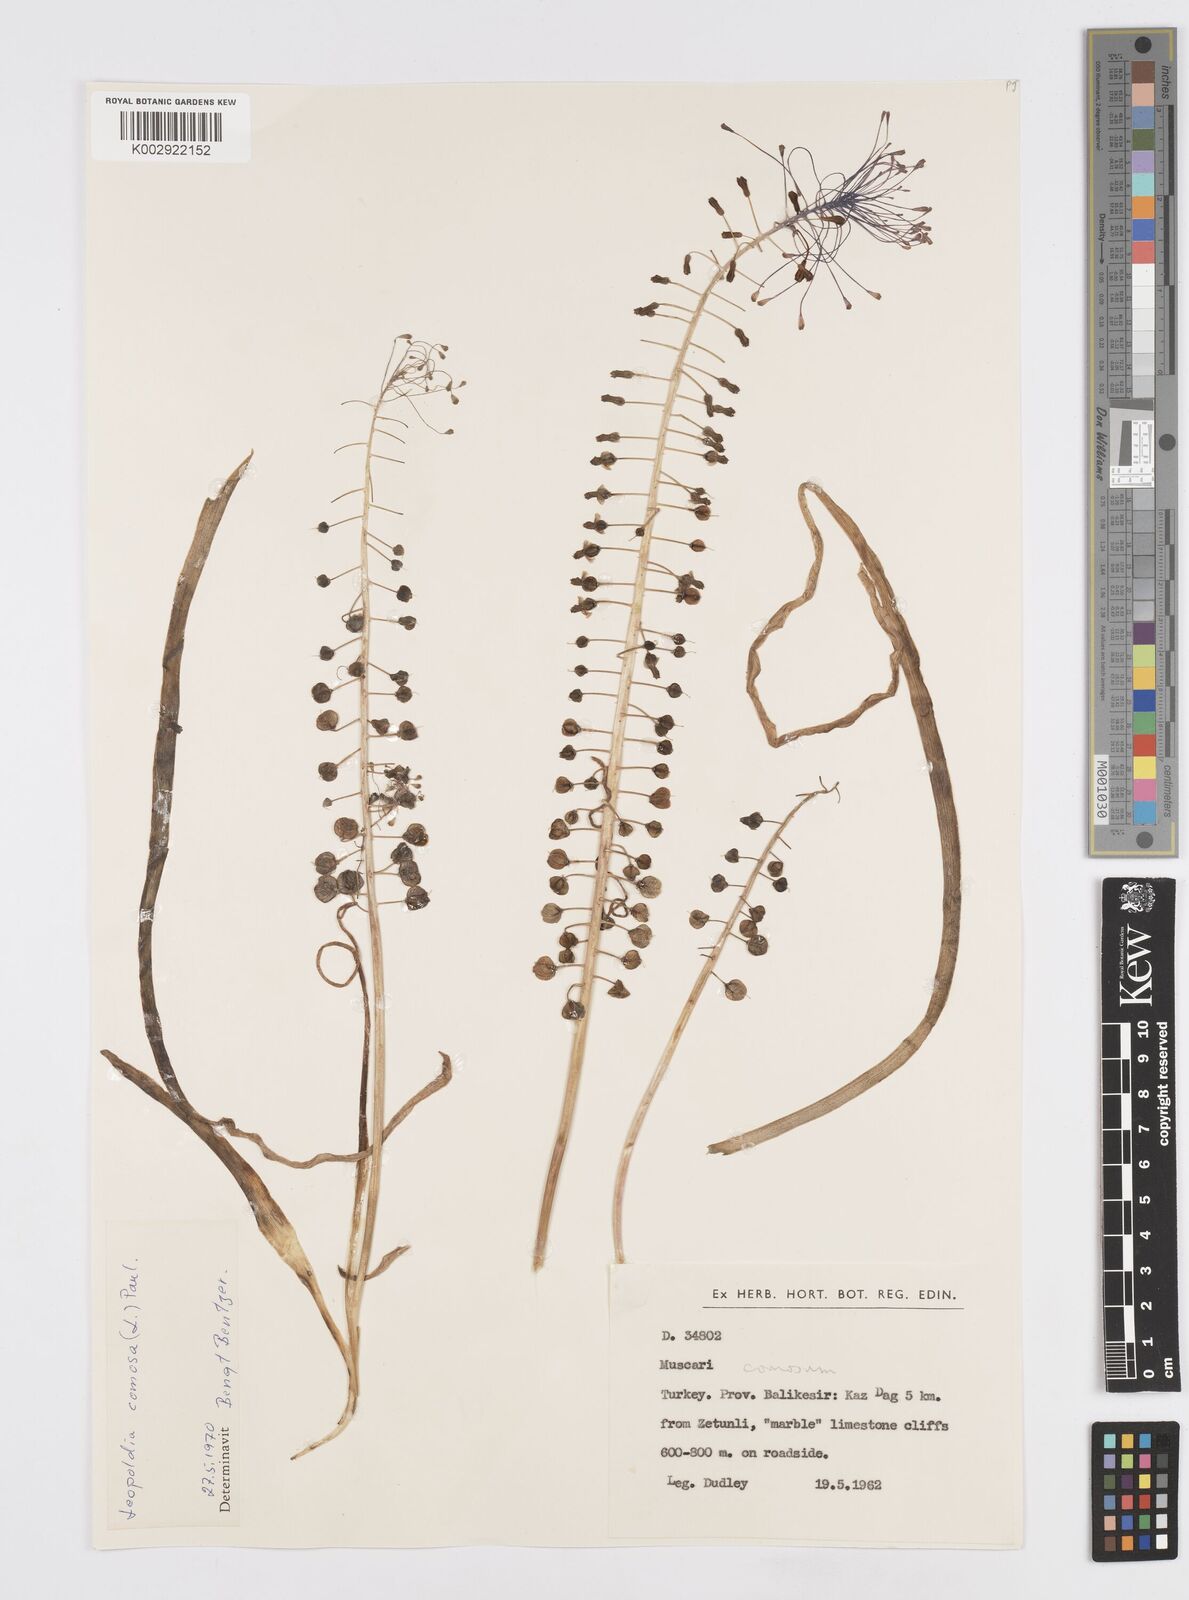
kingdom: Plantae
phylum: Tracheophyta
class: Liliopsida
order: Asparagales
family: Asparagaceae
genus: Muscari
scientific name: Muscari comosum
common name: Tassel hyacinth
